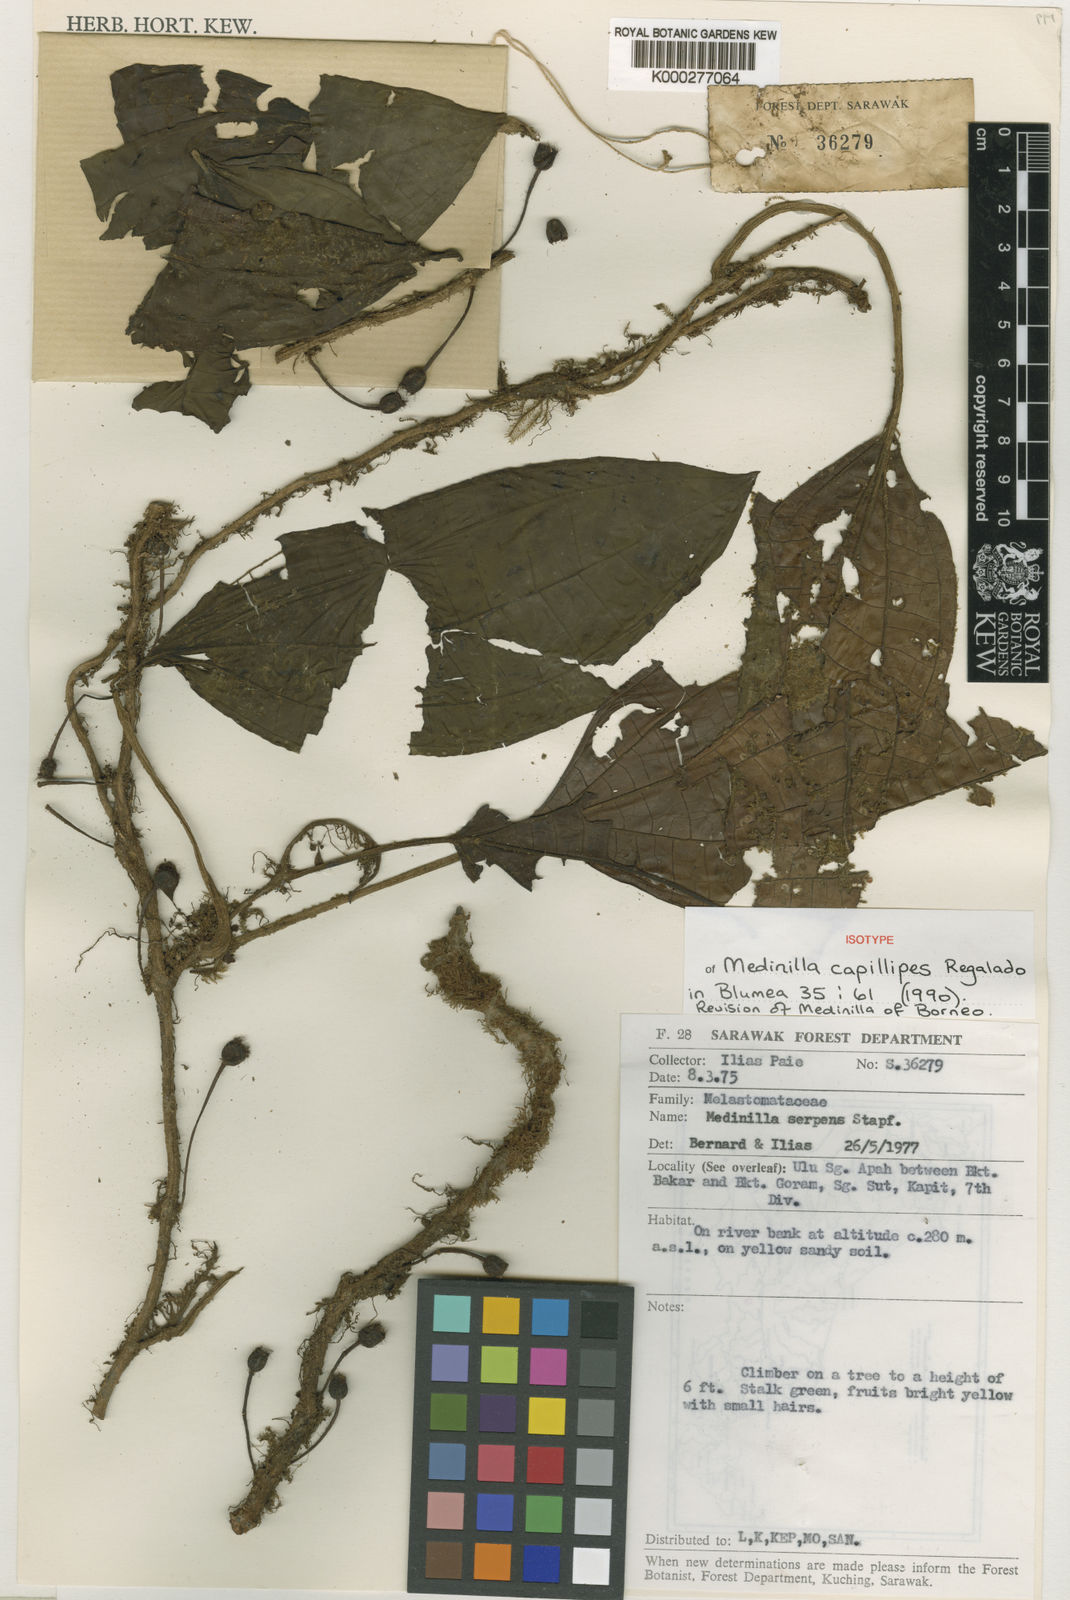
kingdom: Plantae
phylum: Tracheophyta
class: Magnoliopsida
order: Myrtales
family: Melastomataceae
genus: Heteroblemma
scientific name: Heteroblemma capillipes
